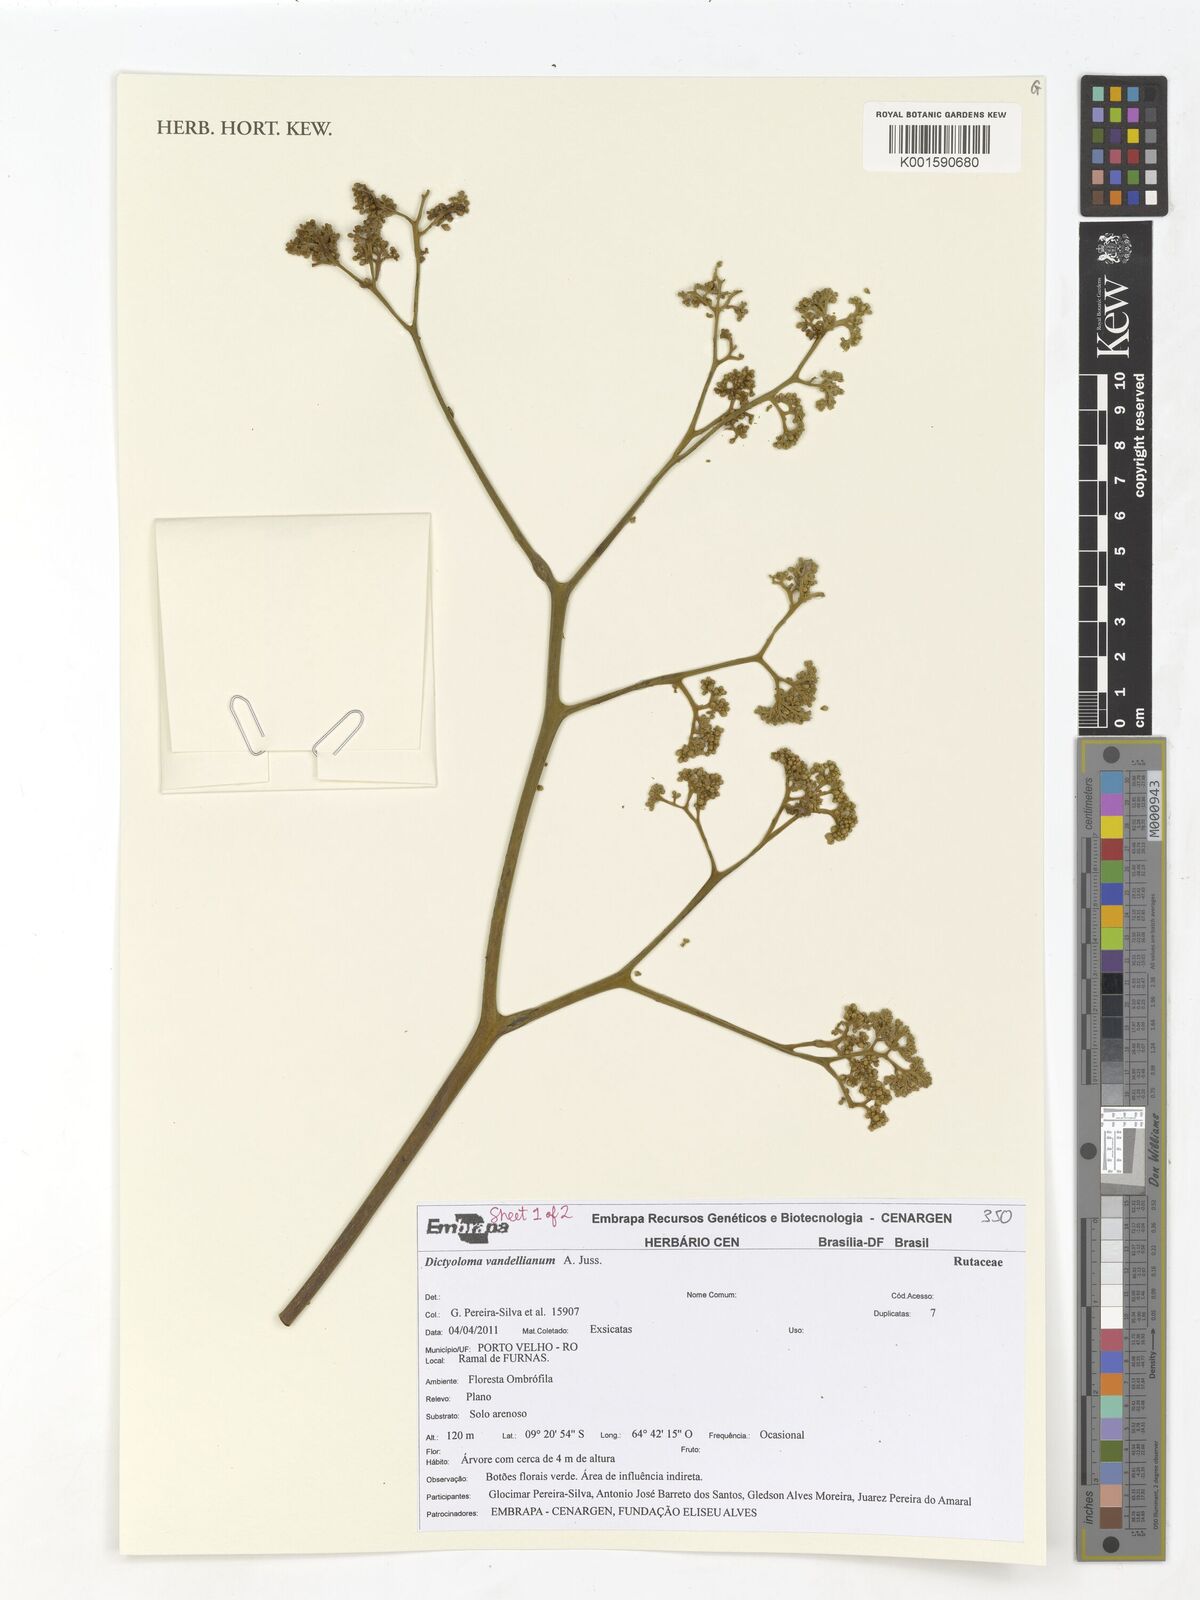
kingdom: Plantae
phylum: Tracheophyta
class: Magnoliopsida
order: Sapindales
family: Rutaceae
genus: Dictyoloma
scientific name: Dictyoloma vandellianum
